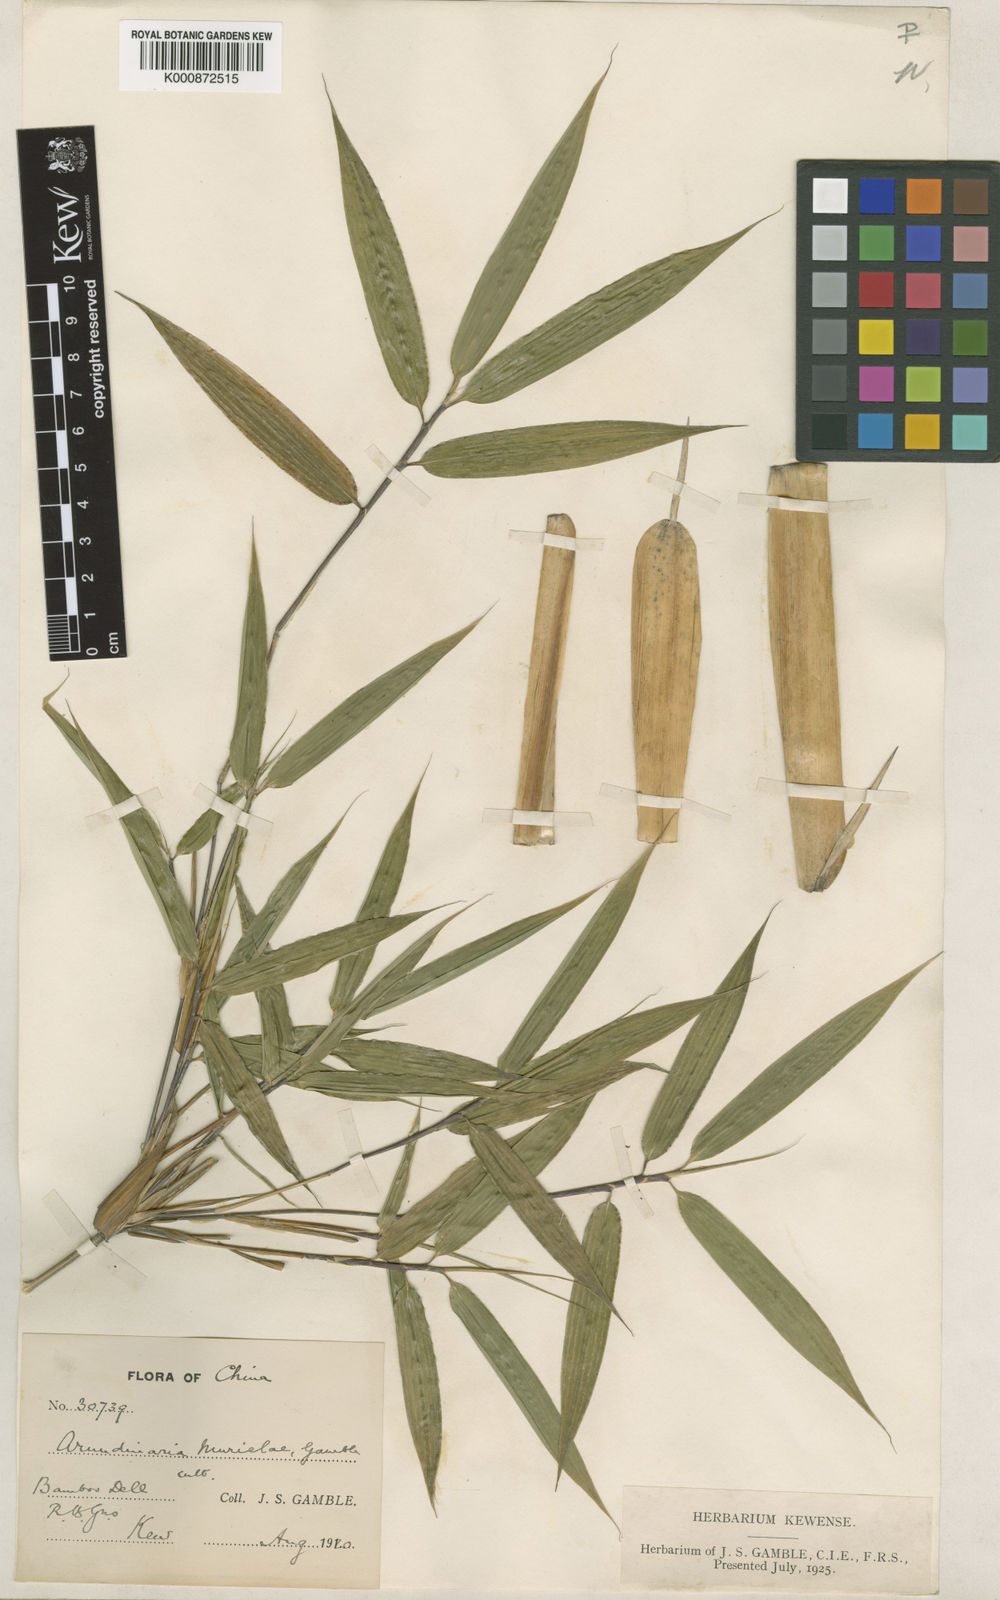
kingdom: Plantae
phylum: Tracheophyta
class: Liliopsida
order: Poales
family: Poaceae
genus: Fargesia
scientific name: Fargesia murielae
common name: Umbrella bamboo
